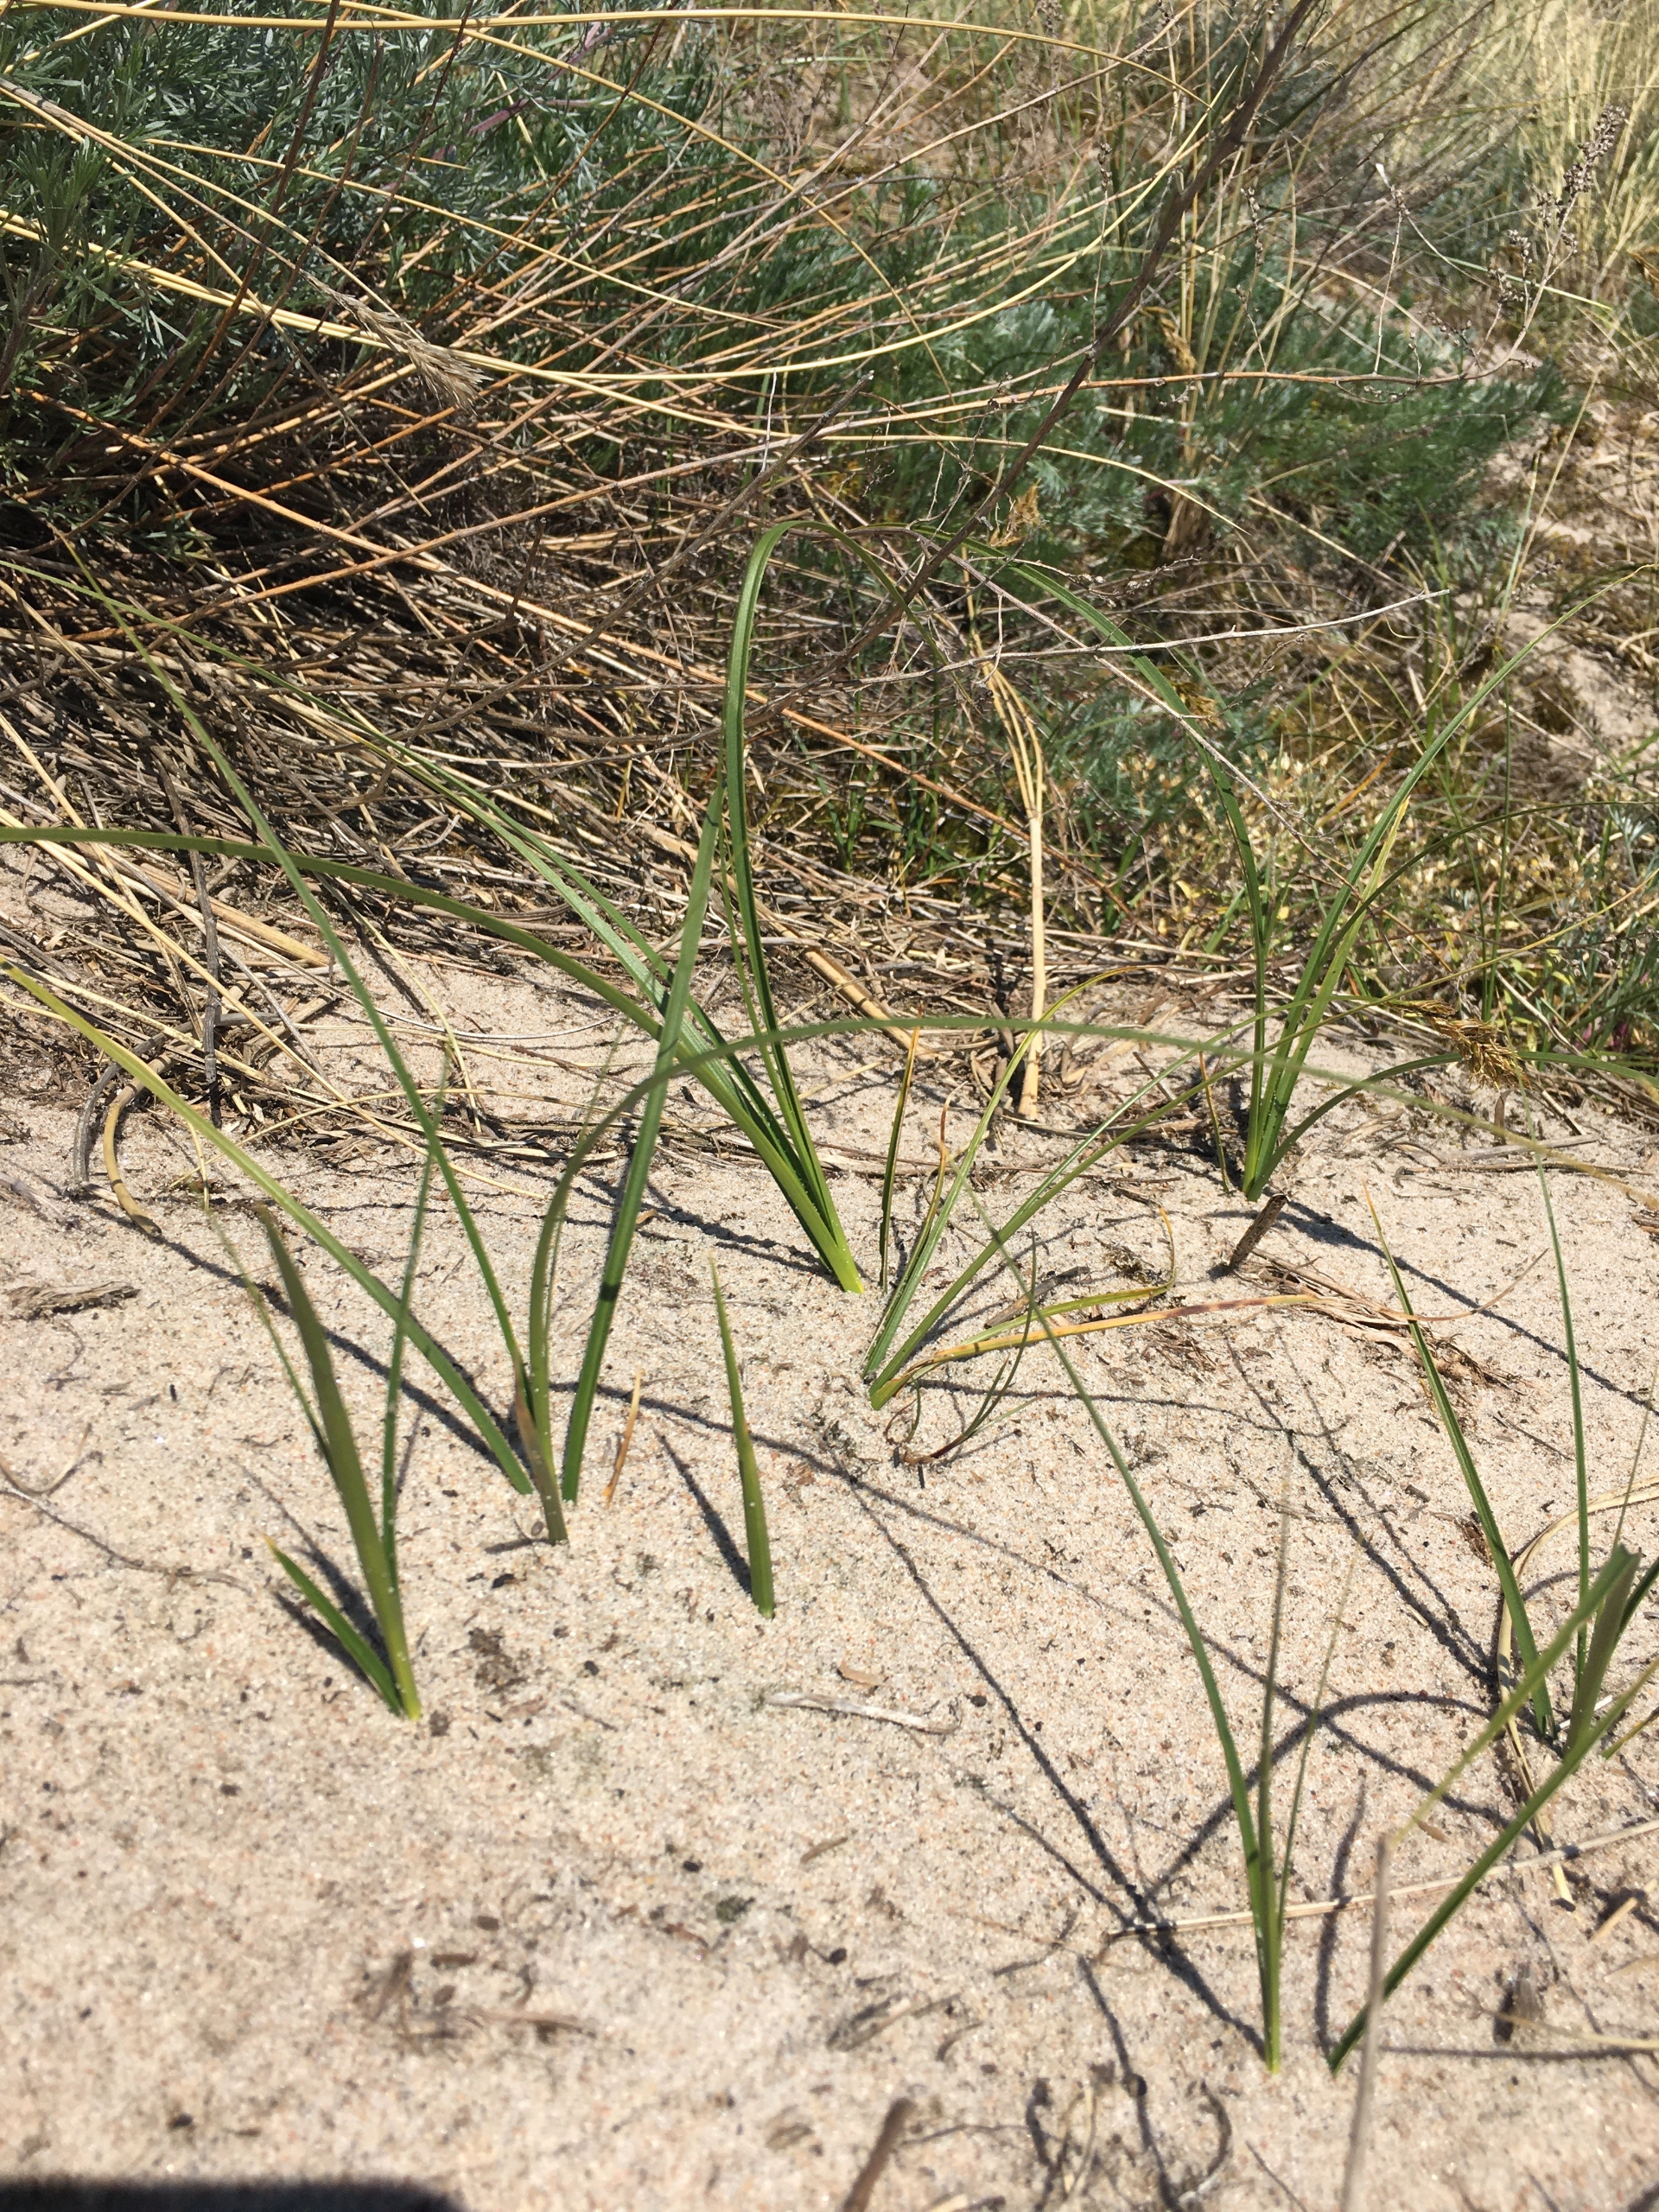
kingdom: Plantae
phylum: Tracheophyta
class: Liliopsida
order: Poales
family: Cyperaceae
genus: Carex
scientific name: Carex arenaria
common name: Sand-star
